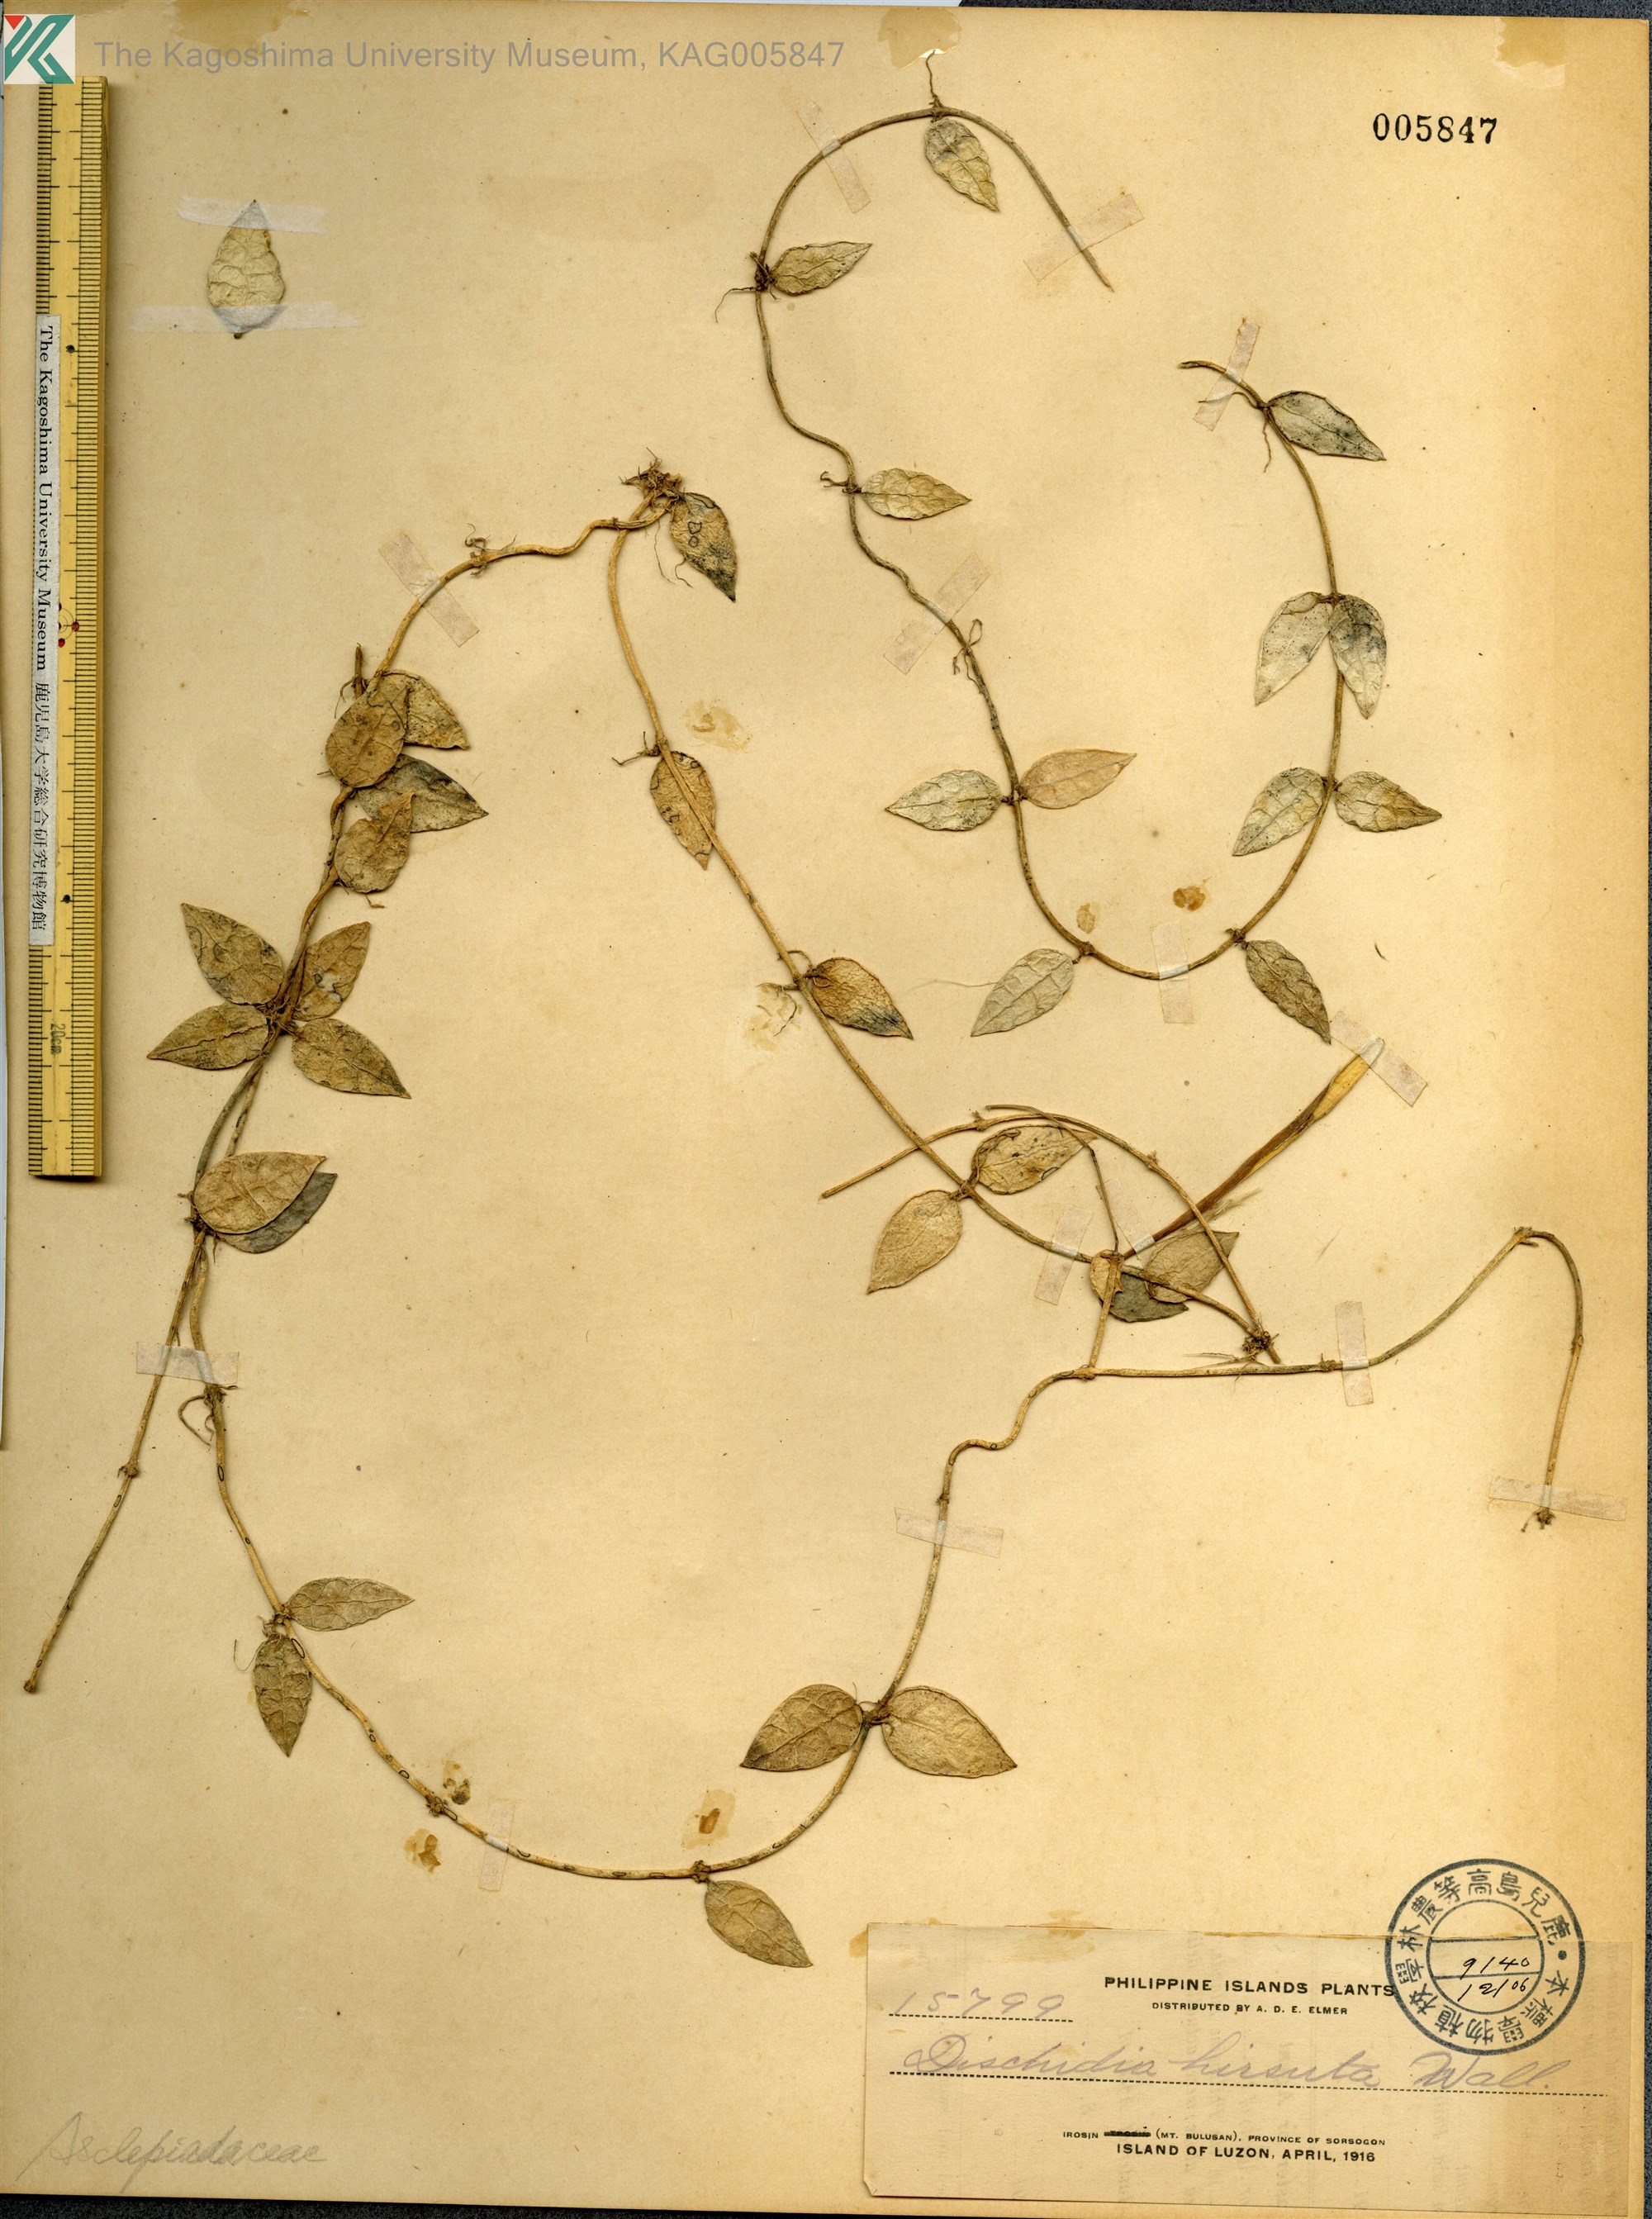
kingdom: Plantae
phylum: Tracheophyta
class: Magnoliopsida
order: Gentianales
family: Apocynaceae
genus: Dischidia
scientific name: Dischidia
